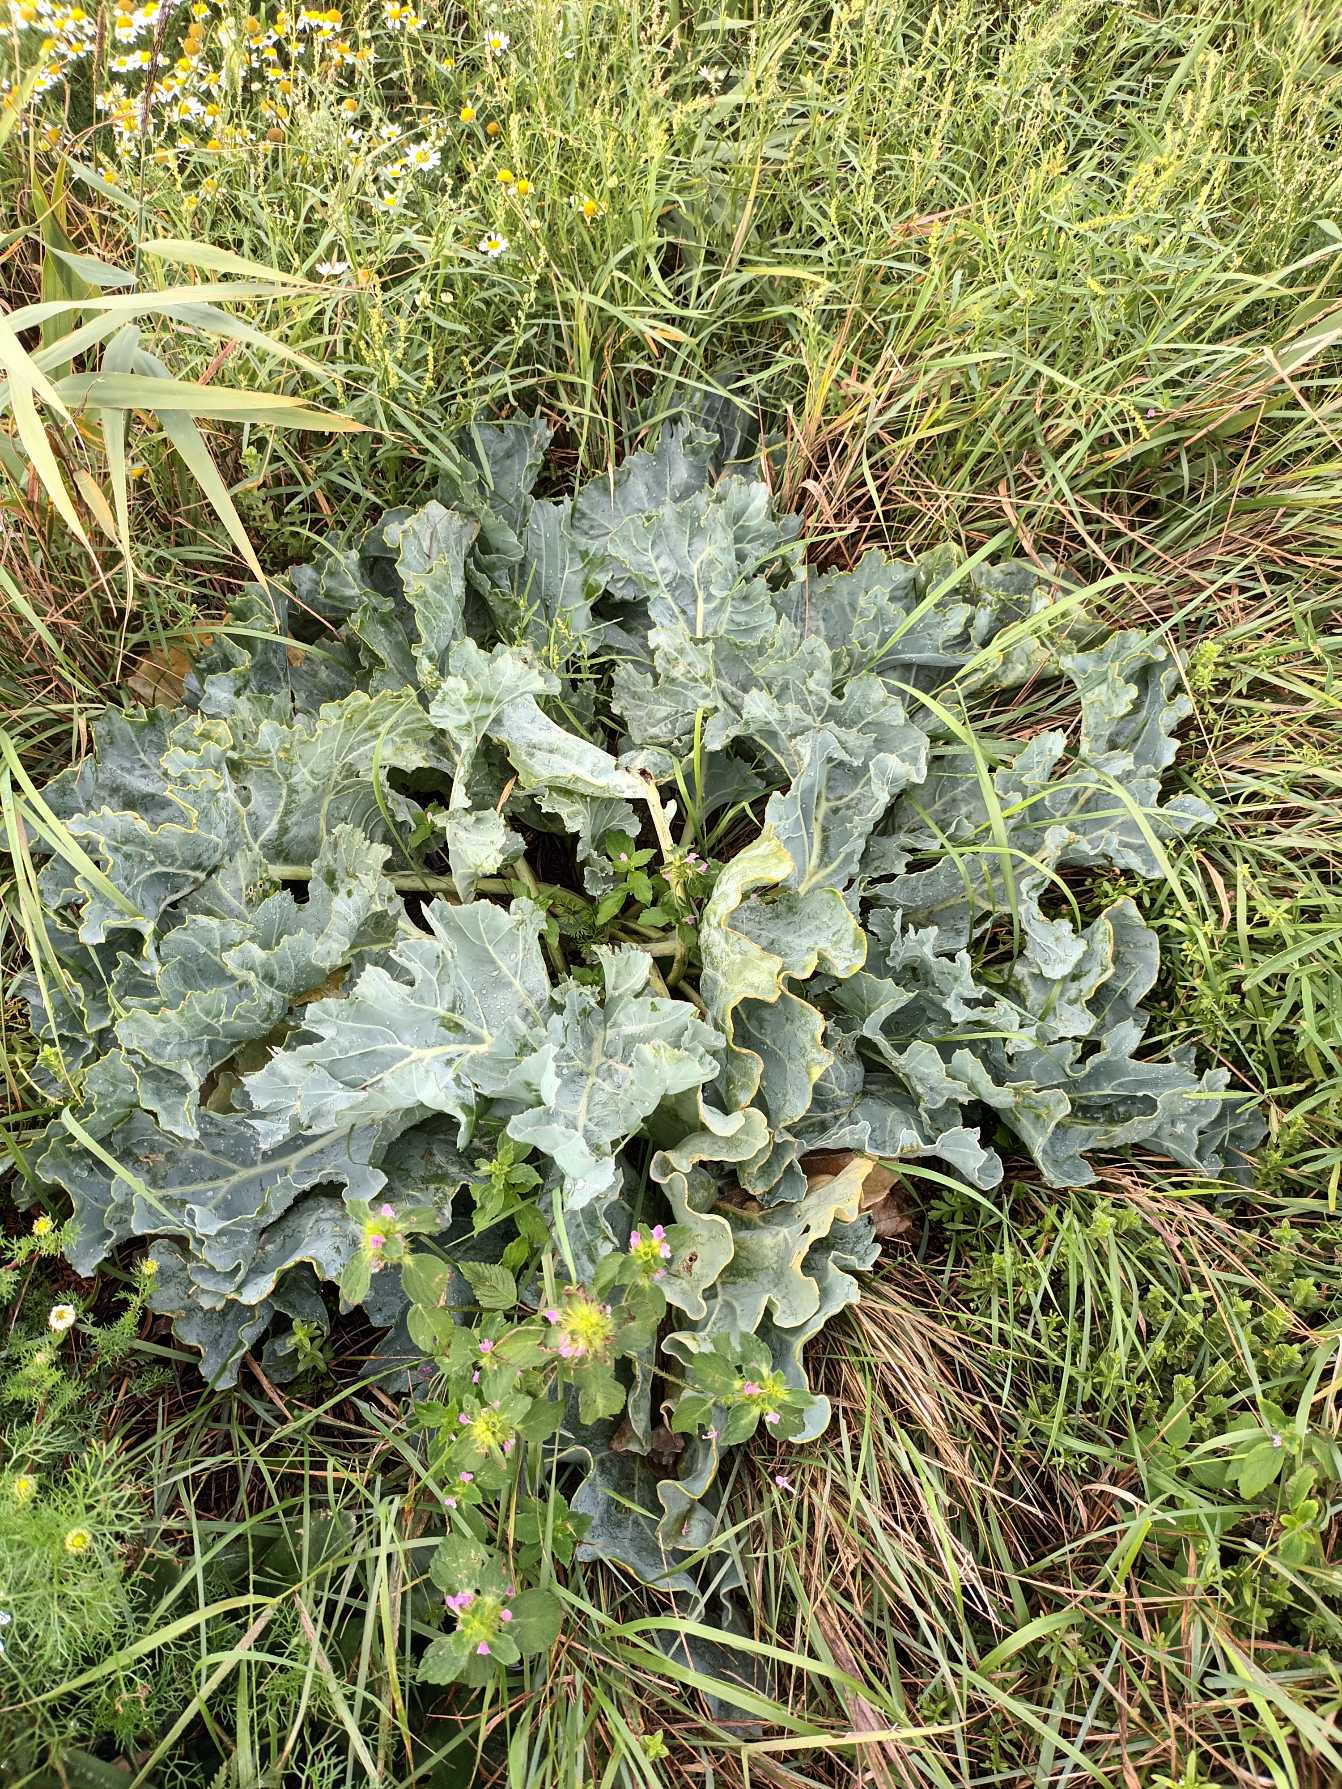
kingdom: Plantae
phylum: Tracheophyta
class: Magnoliopsida
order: Brassicales
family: Brassicaceae
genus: Crambe
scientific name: Crambe maritima
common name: Strandkål
